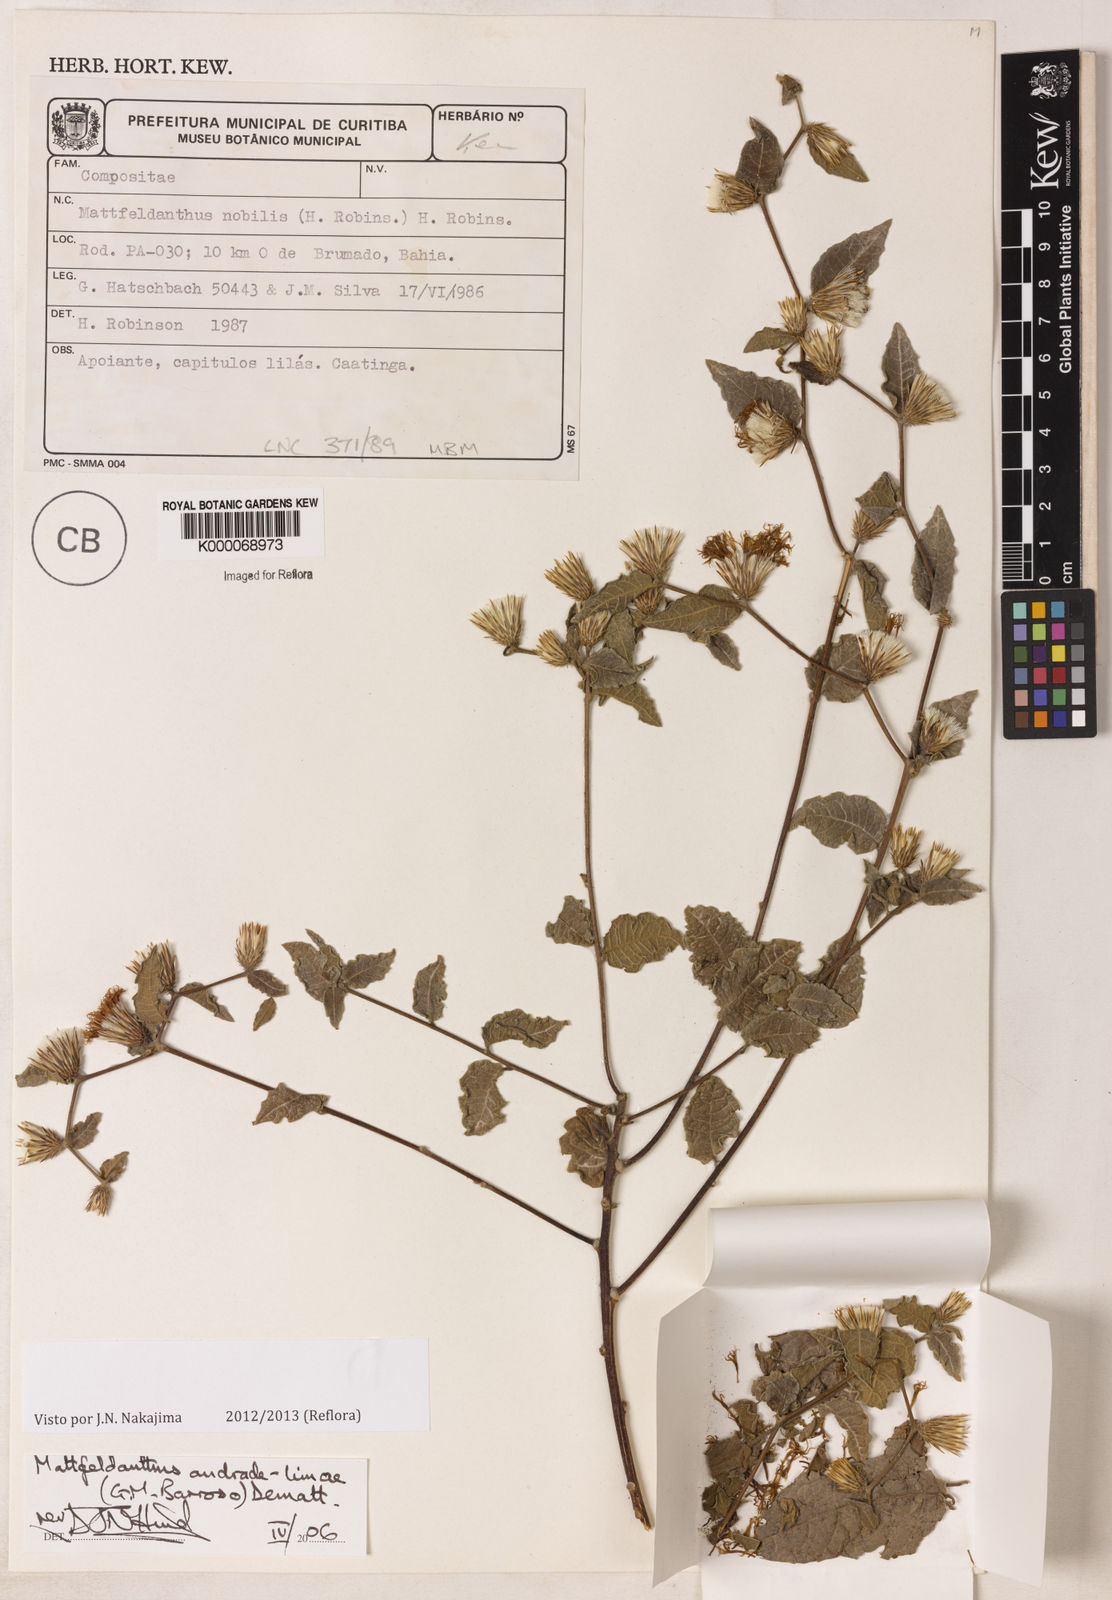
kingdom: Plantae
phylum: Tracheophyta
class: Magnoliopsida
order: Asterales
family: Asteraceae
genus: Mattfeldanthus
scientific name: Mattfeldanthus andrade-limae
